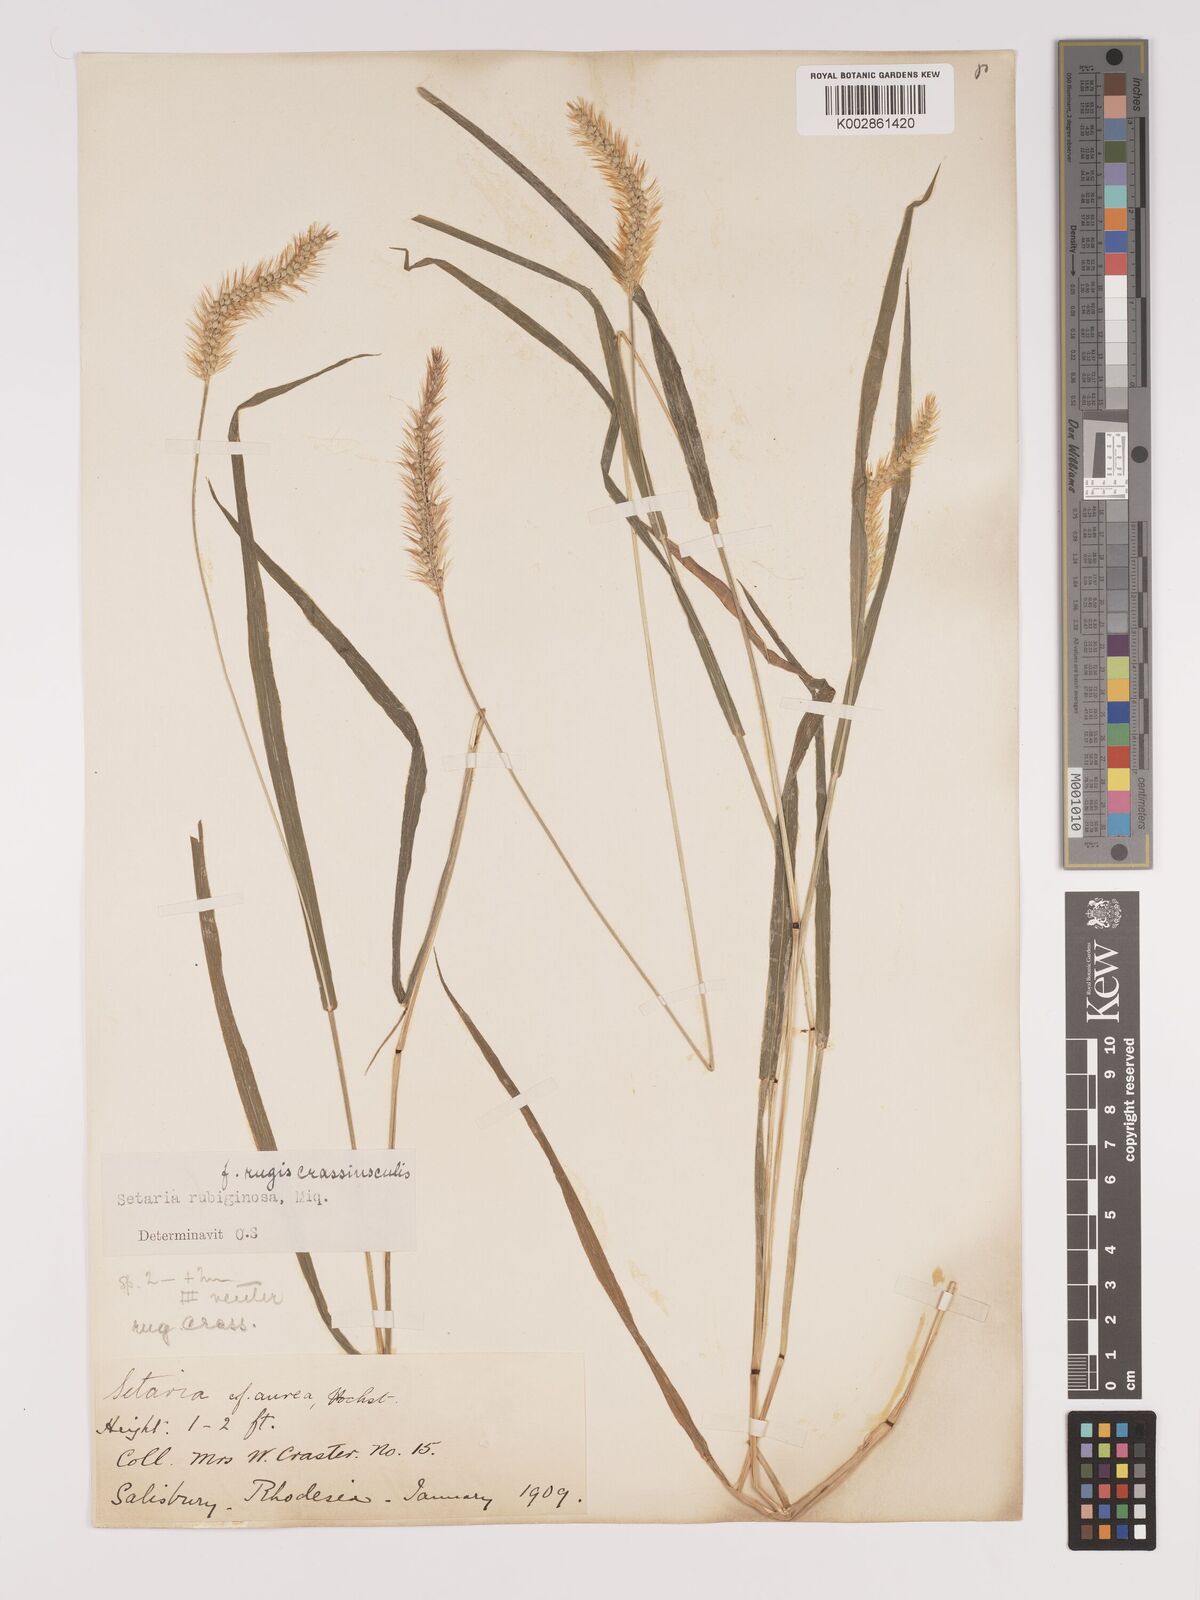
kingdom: Plantae
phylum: Tracheophyta
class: Liliopsida
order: Poales
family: Poaceae
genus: Setaria
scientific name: Setaria pumila
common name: Yellow bristle-grass
